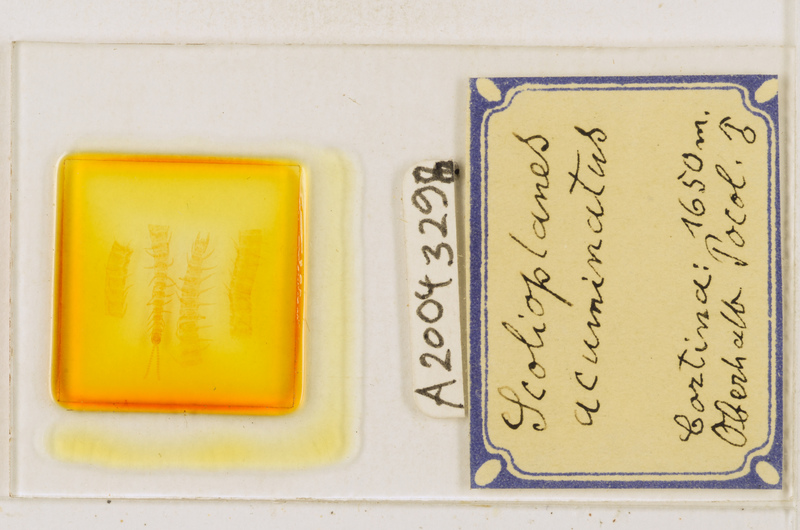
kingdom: Animalia
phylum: Arthropoda
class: Chilopoda
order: Geophilomorpha
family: Linotaeniidae
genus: Strigamia
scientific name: Strigamia acuminata
